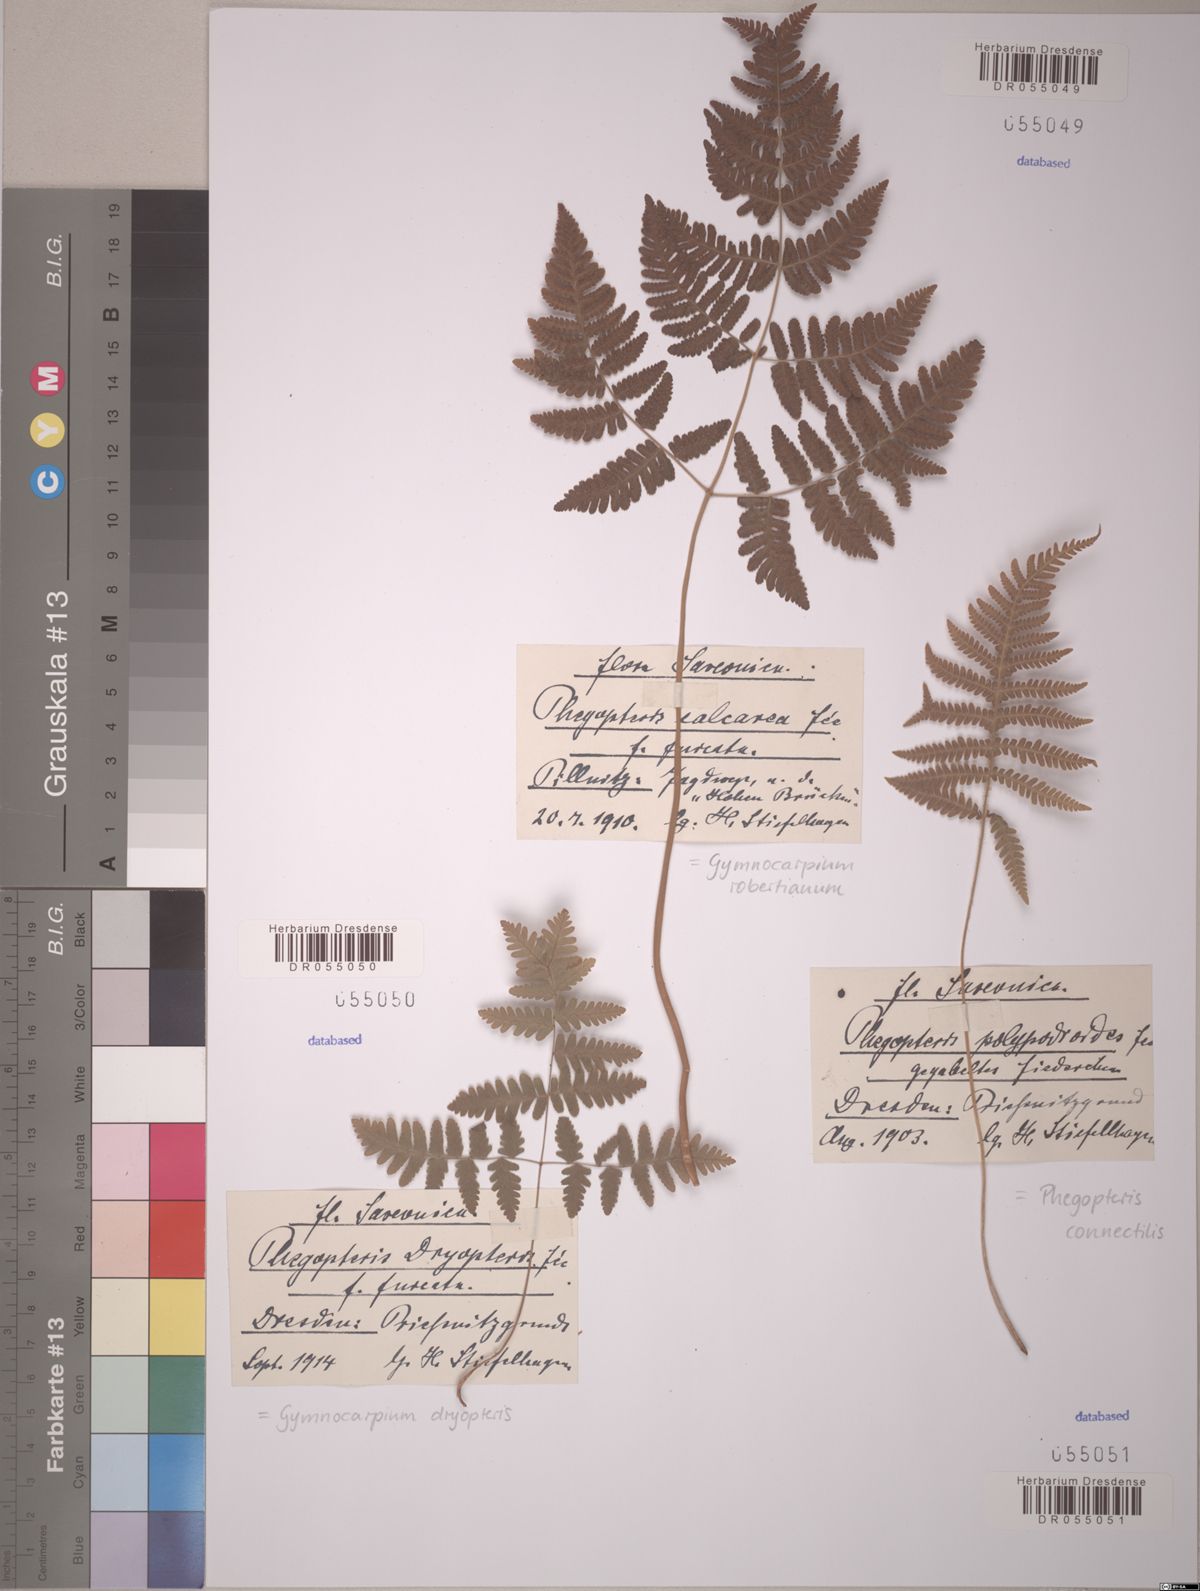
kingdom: Plantae
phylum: Tracheophyta
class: Polypodiopsida
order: Polypodiales
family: Cystopteridaceae
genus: Gymnocarpium
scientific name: Gymnocarpium dryopteris
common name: Oak fern
